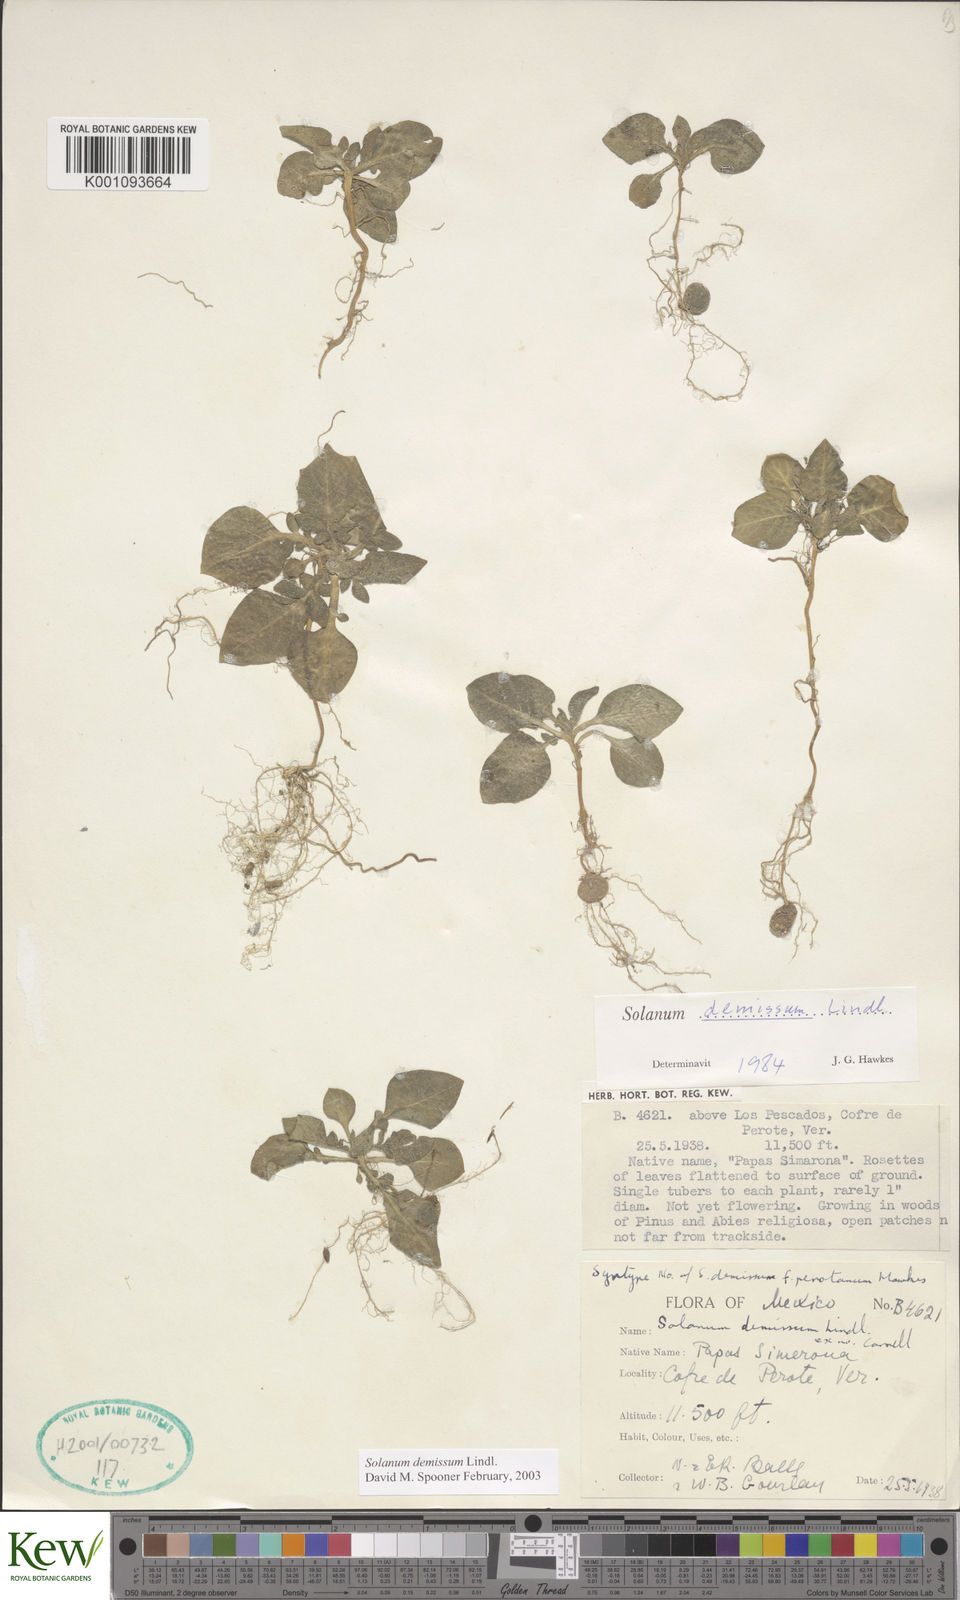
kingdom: Plantae
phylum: Tracheophyta
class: Magnoliopsida
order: Solanales
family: Solanaceae
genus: Solanum
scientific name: Solanum demissum
